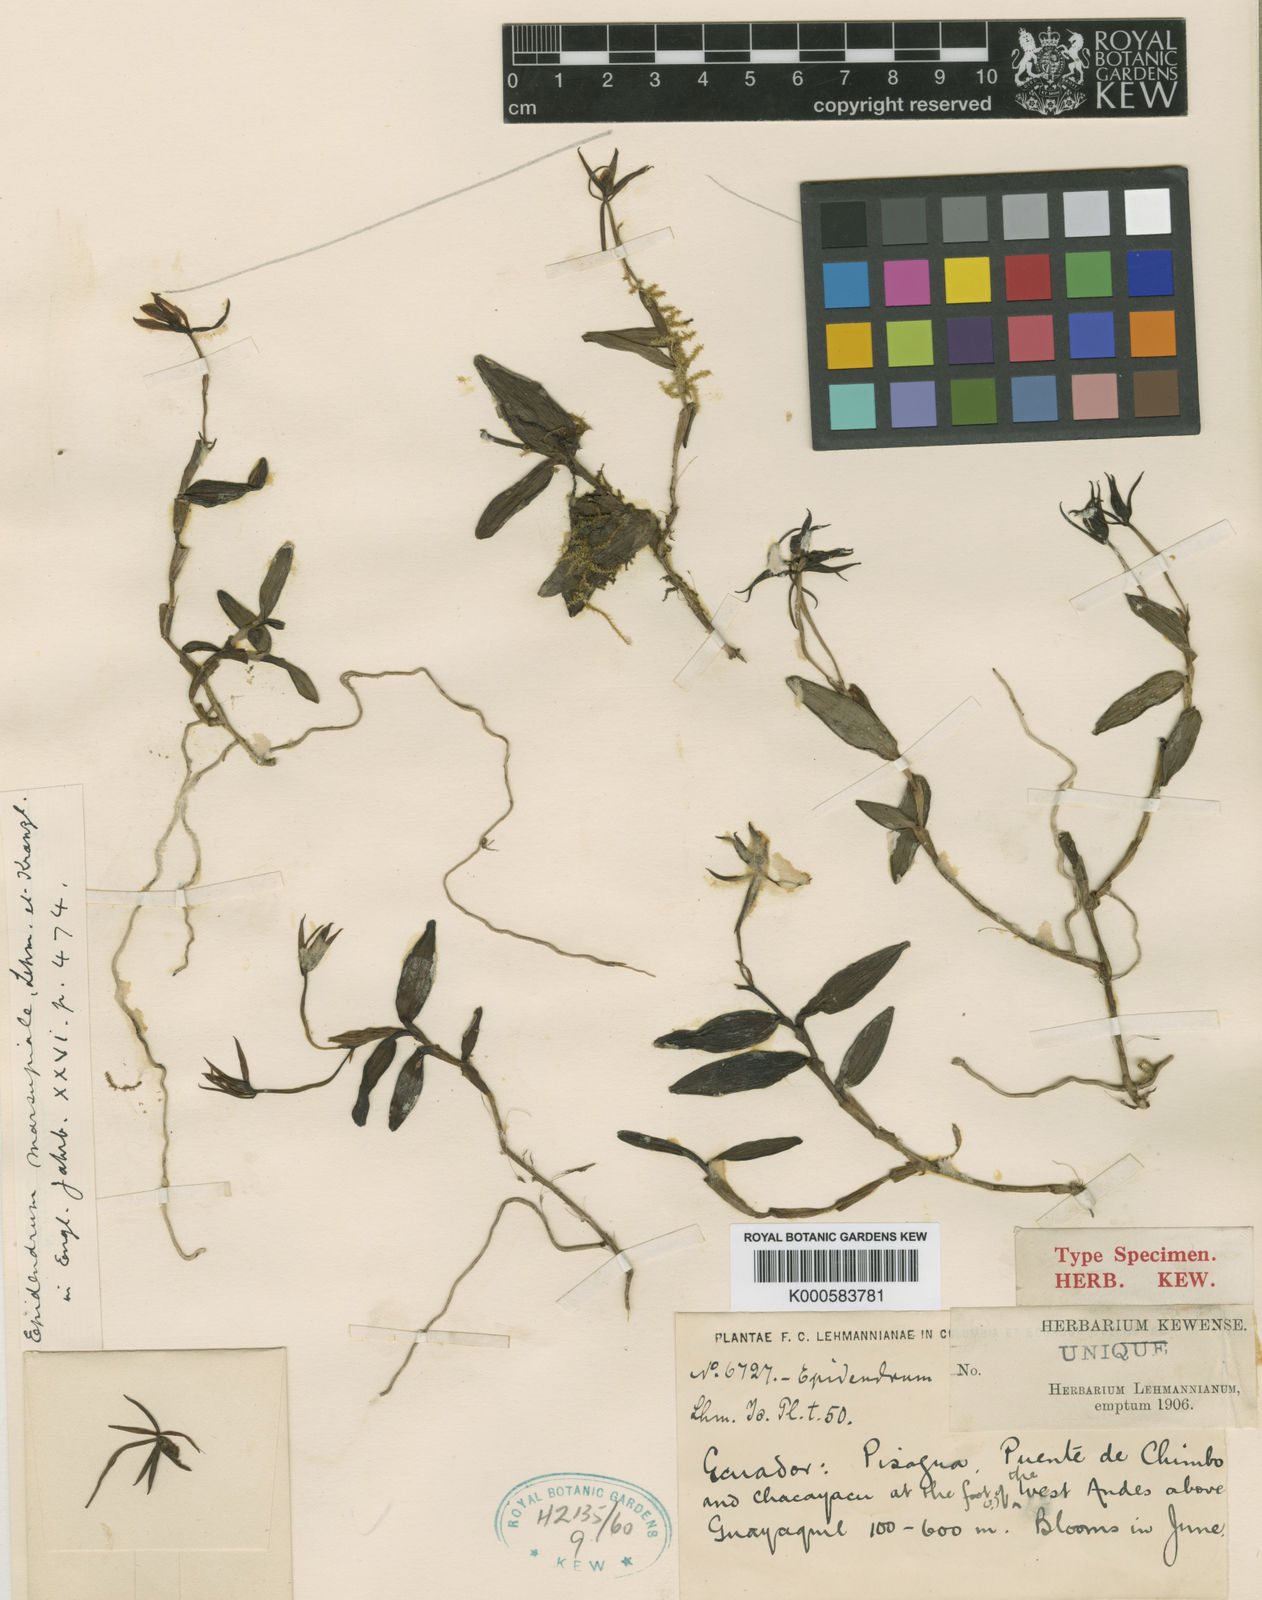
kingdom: Plantae
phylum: Tracheophyta
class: Liliopsida
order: Asparagales
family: Orchidaceae
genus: Epidendrum
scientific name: Epidendrum marsupiale
